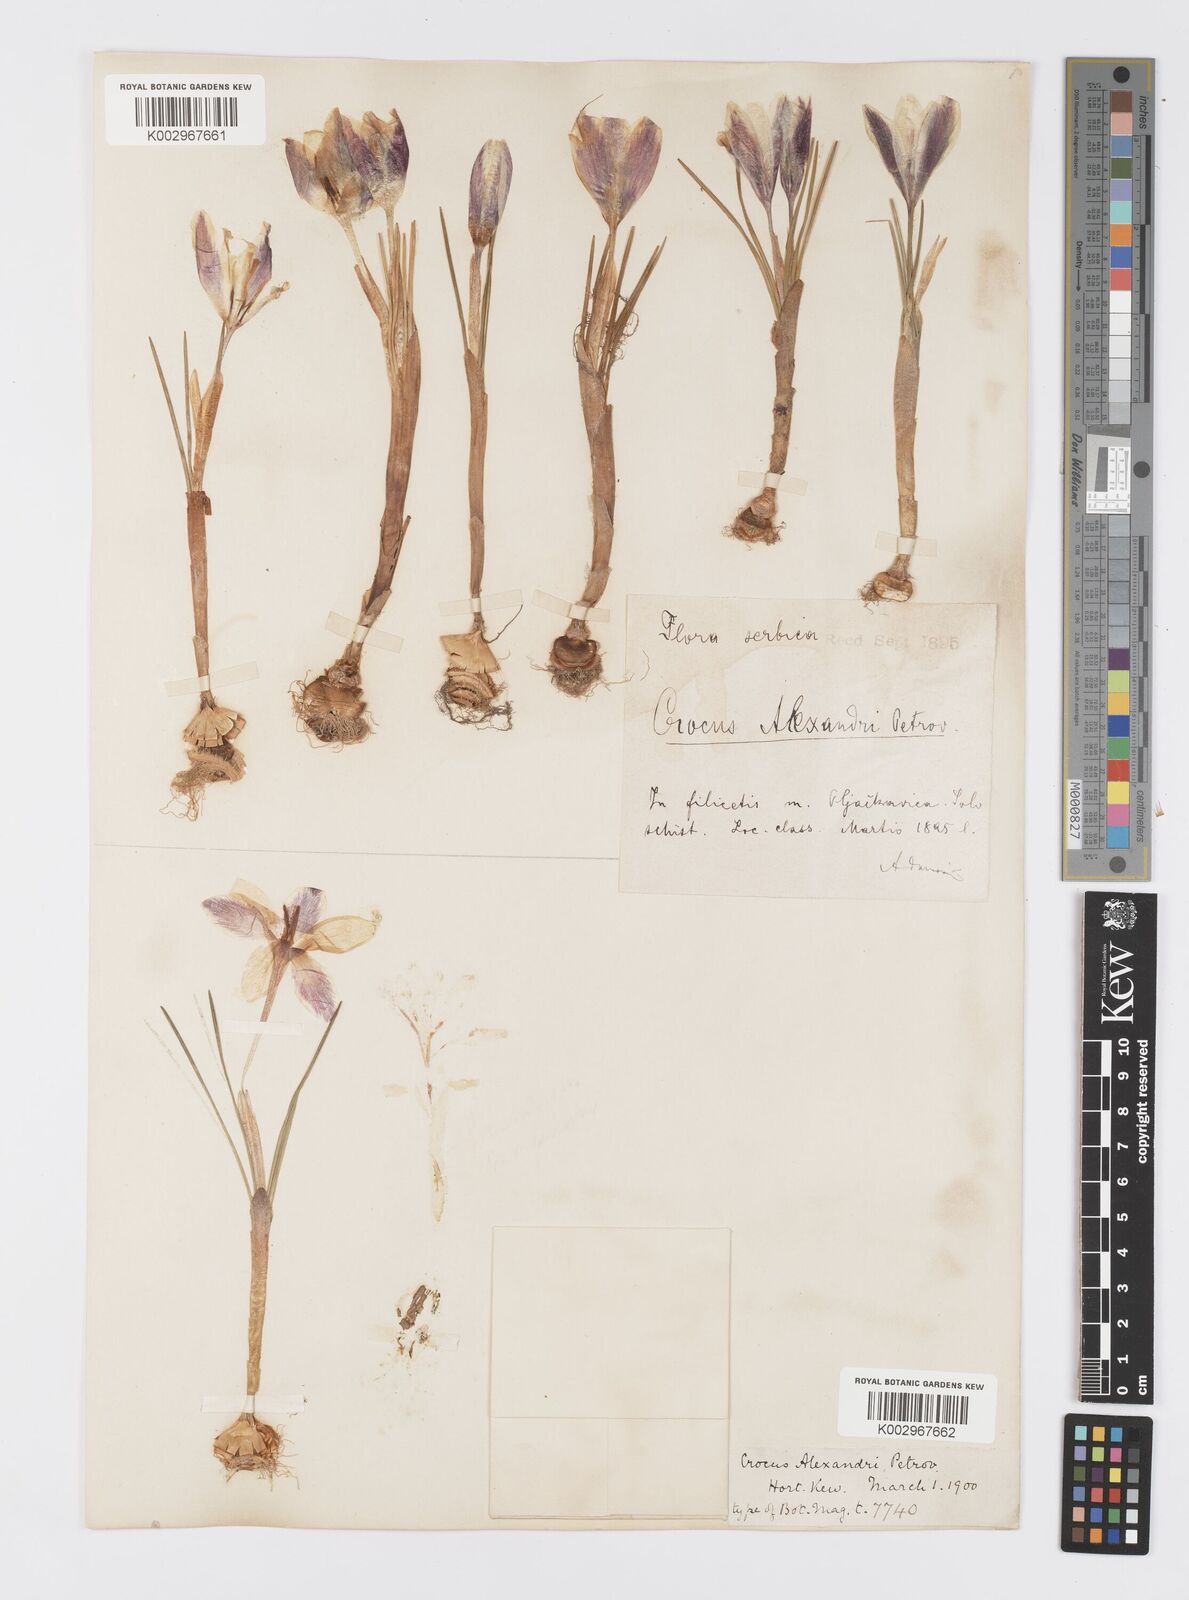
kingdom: Plantae
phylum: Tracheophyta
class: Liliopsida
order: Asparagales
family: Iridaceae
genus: Crocus
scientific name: Crocus alexandri
